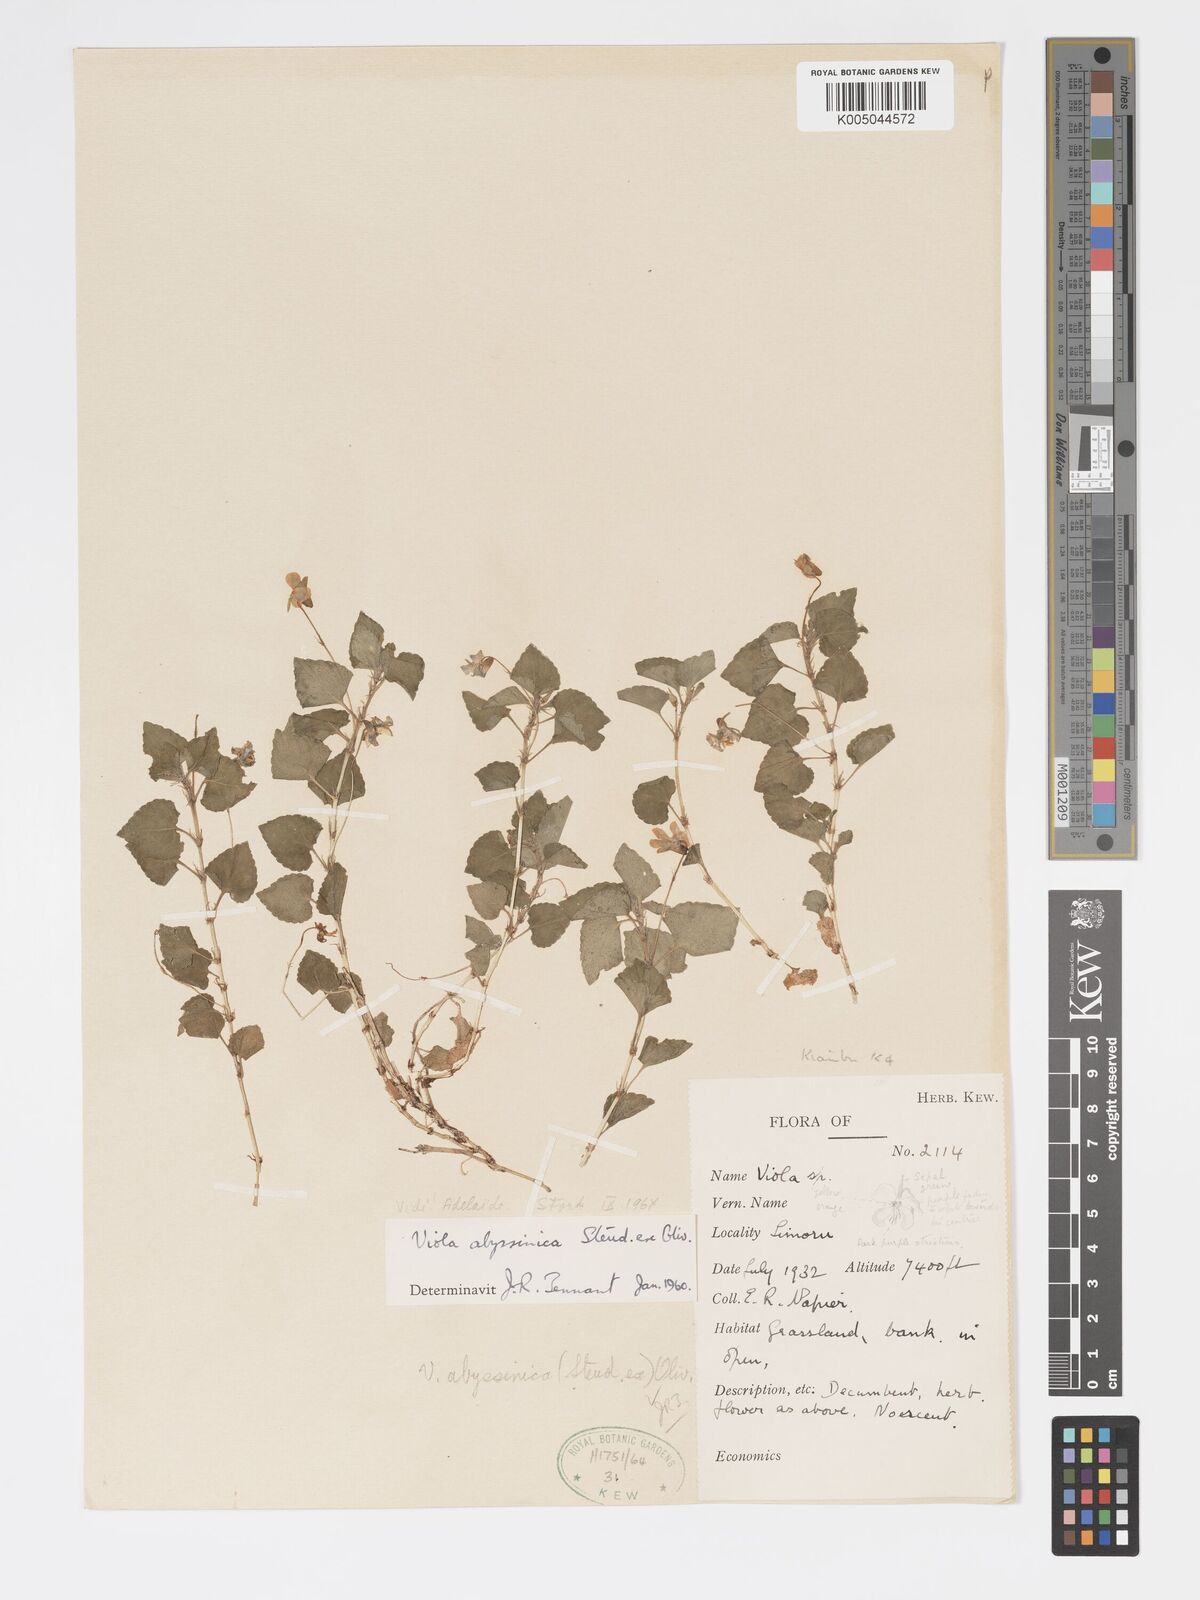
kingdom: Plantae
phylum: Tracheophyta
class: Magnoliopsida
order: Malpighiales
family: Violaceae
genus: Viola
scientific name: Viola abyssinica
